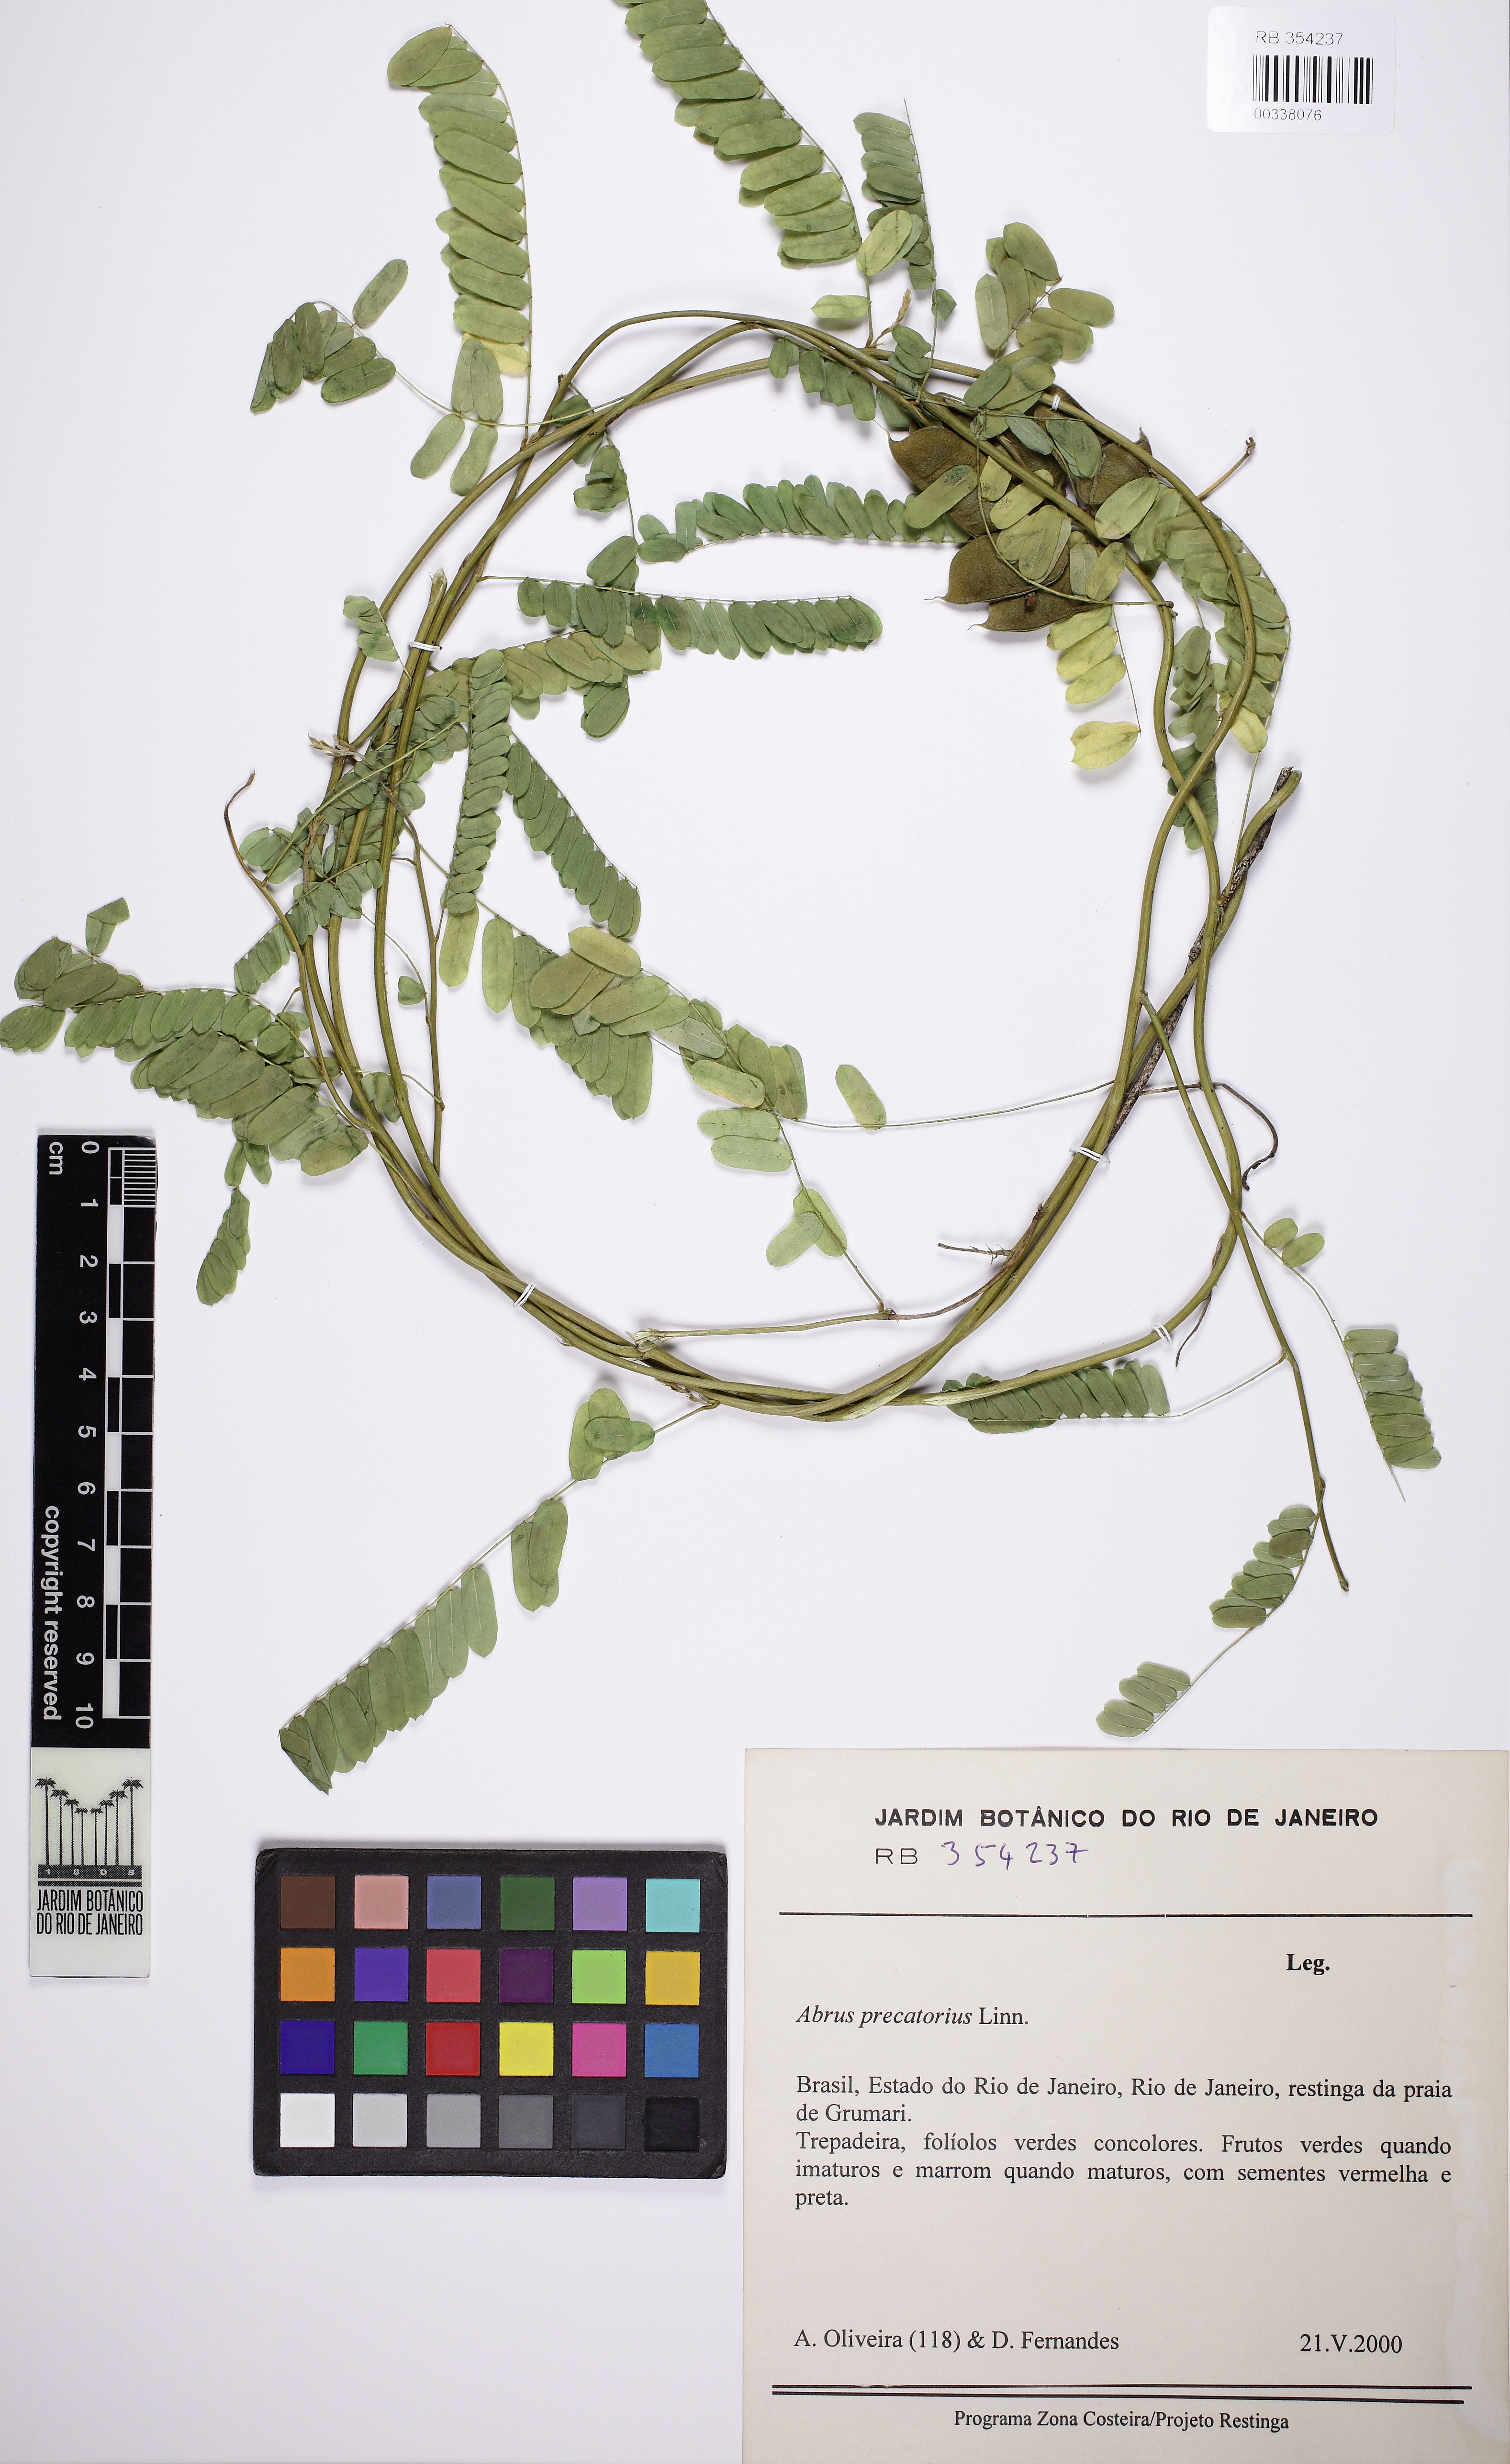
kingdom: Plantae
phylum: Tracheophyta
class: Magnoliopsida
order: Fabales
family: Fabaceae
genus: Abrus
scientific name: Abrus precatorius
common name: Rosarypea
